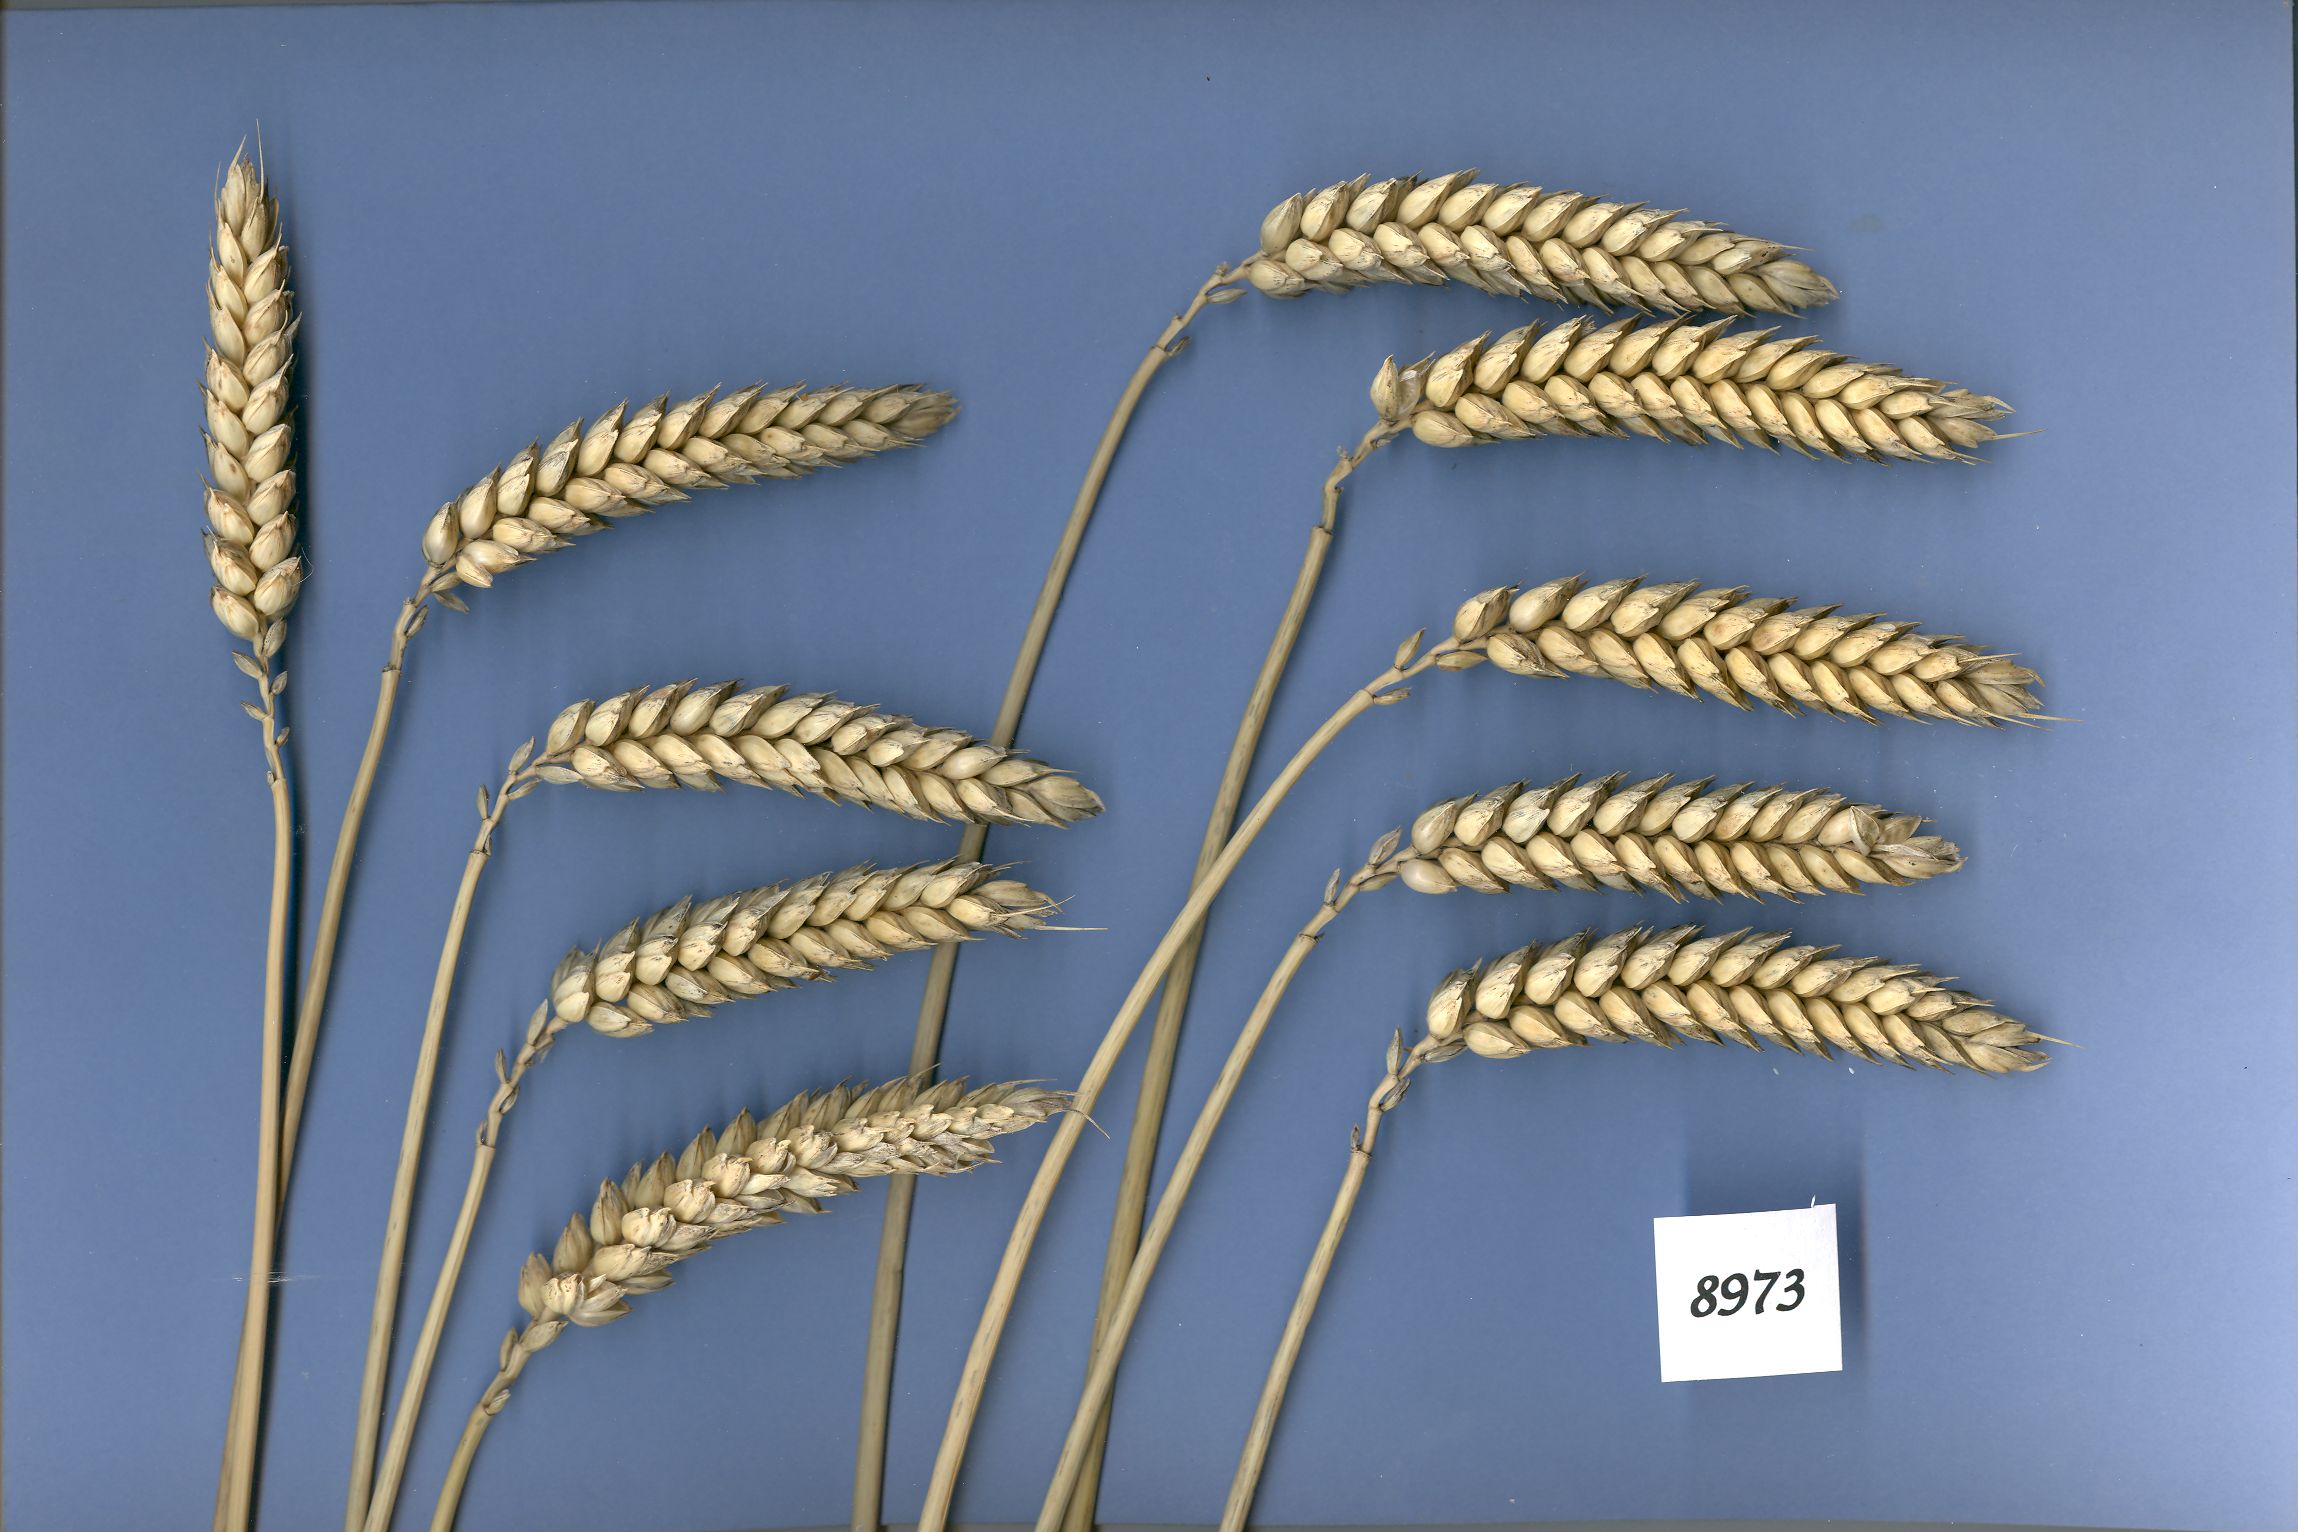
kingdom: Plantae
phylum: Tracheophyta
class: Liliopsida
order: Poales
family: Poaceae
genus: Triticum
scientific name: Triticum aestivum
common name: Common wheat
